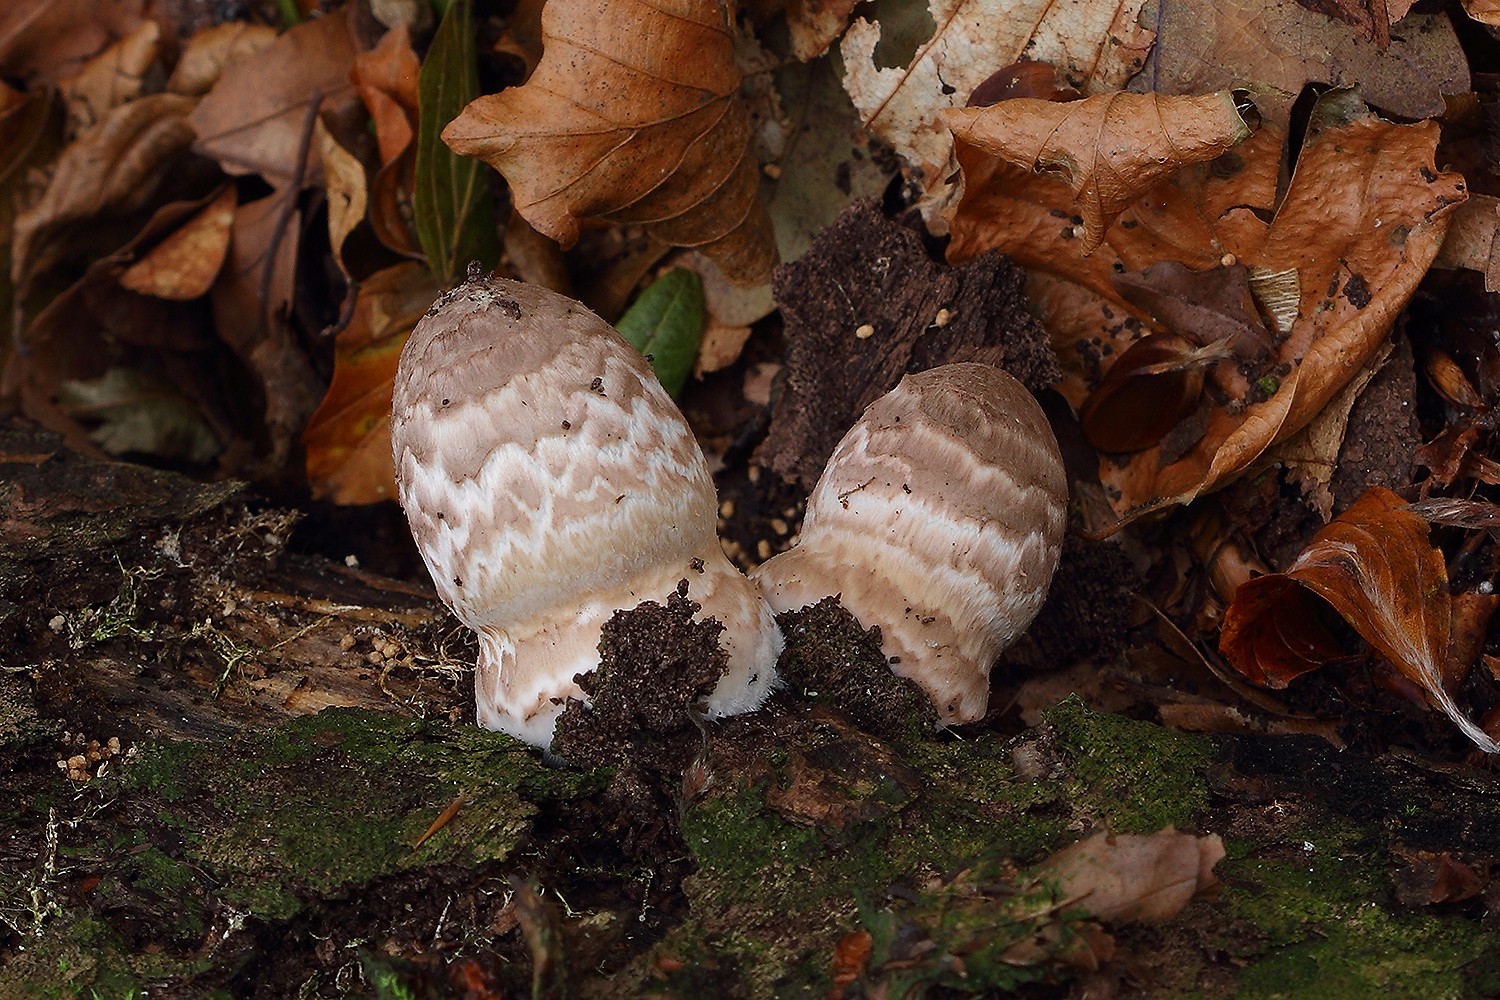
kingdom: Fungi
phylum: Basidiomycota
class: Agaricomycetes
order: Agaricales
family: Psathyrellaceae
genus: Coprinopsis
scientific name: Coprinopsis picacea
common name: skade-blækhat
